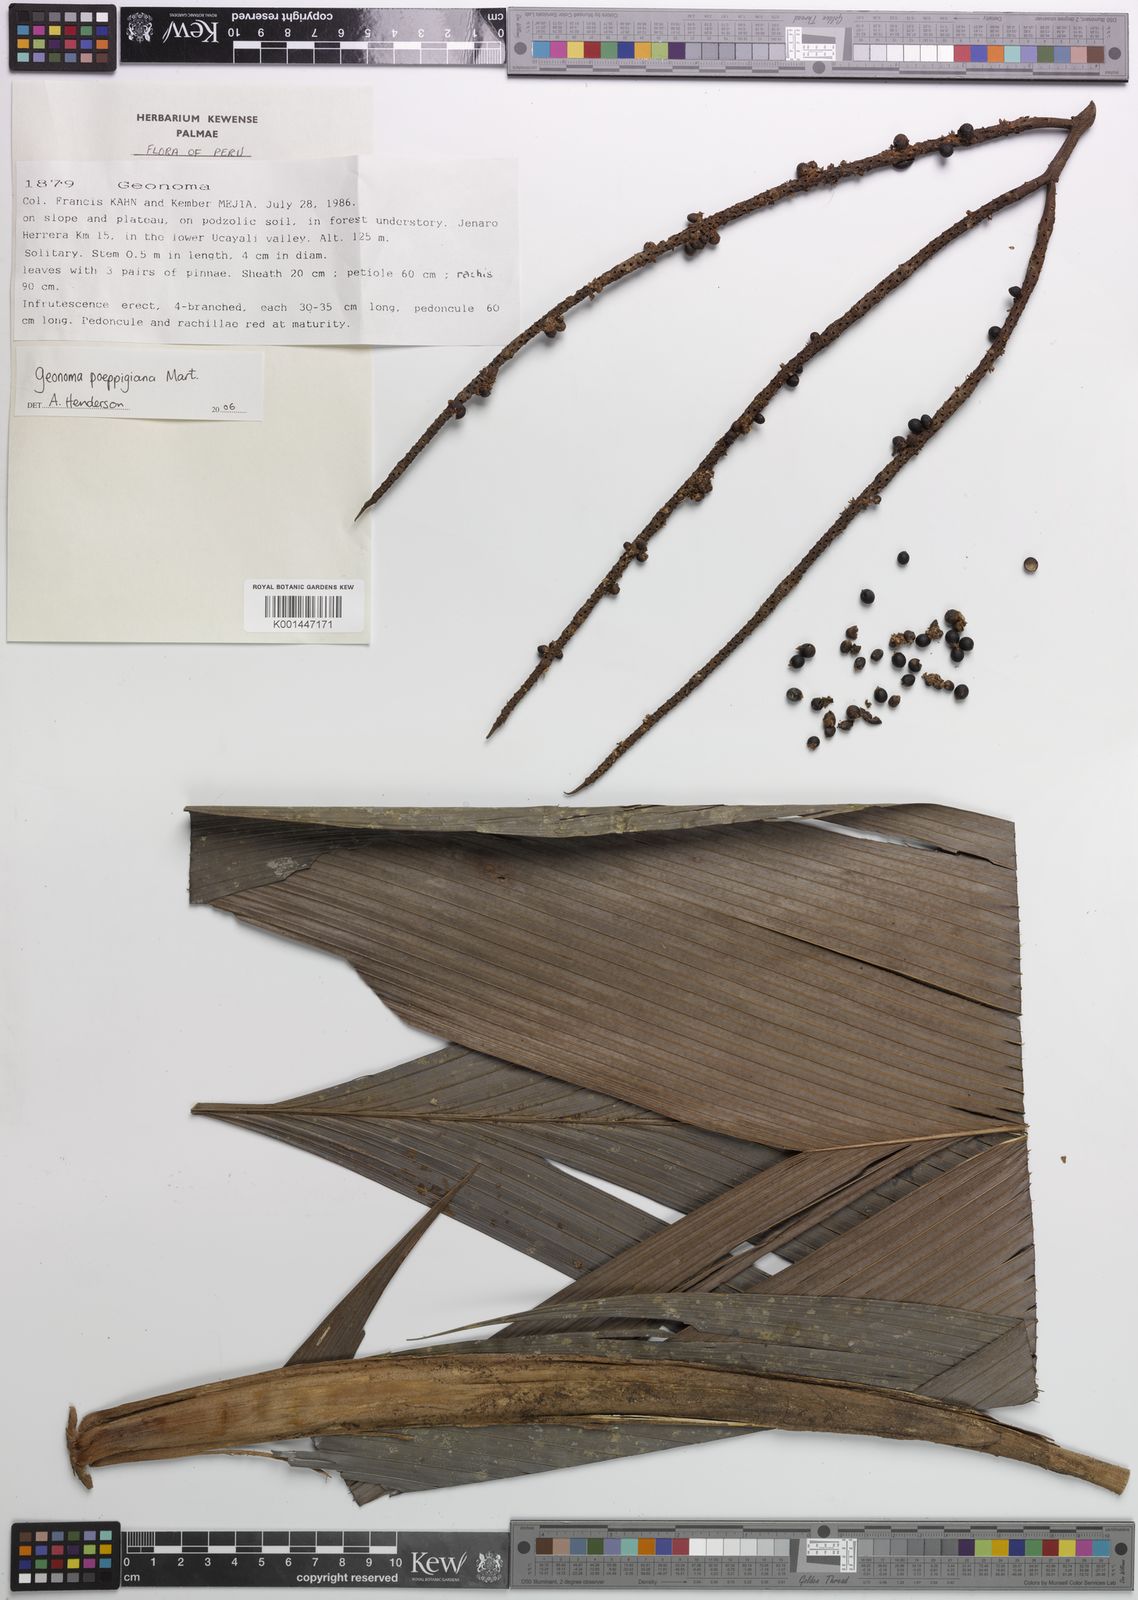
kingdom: Plantae
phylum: Tracheophyta
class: Liliopsida
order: Arecales
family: Arecaceae
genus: Geonoma
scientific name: Geonoma poeppigiana
